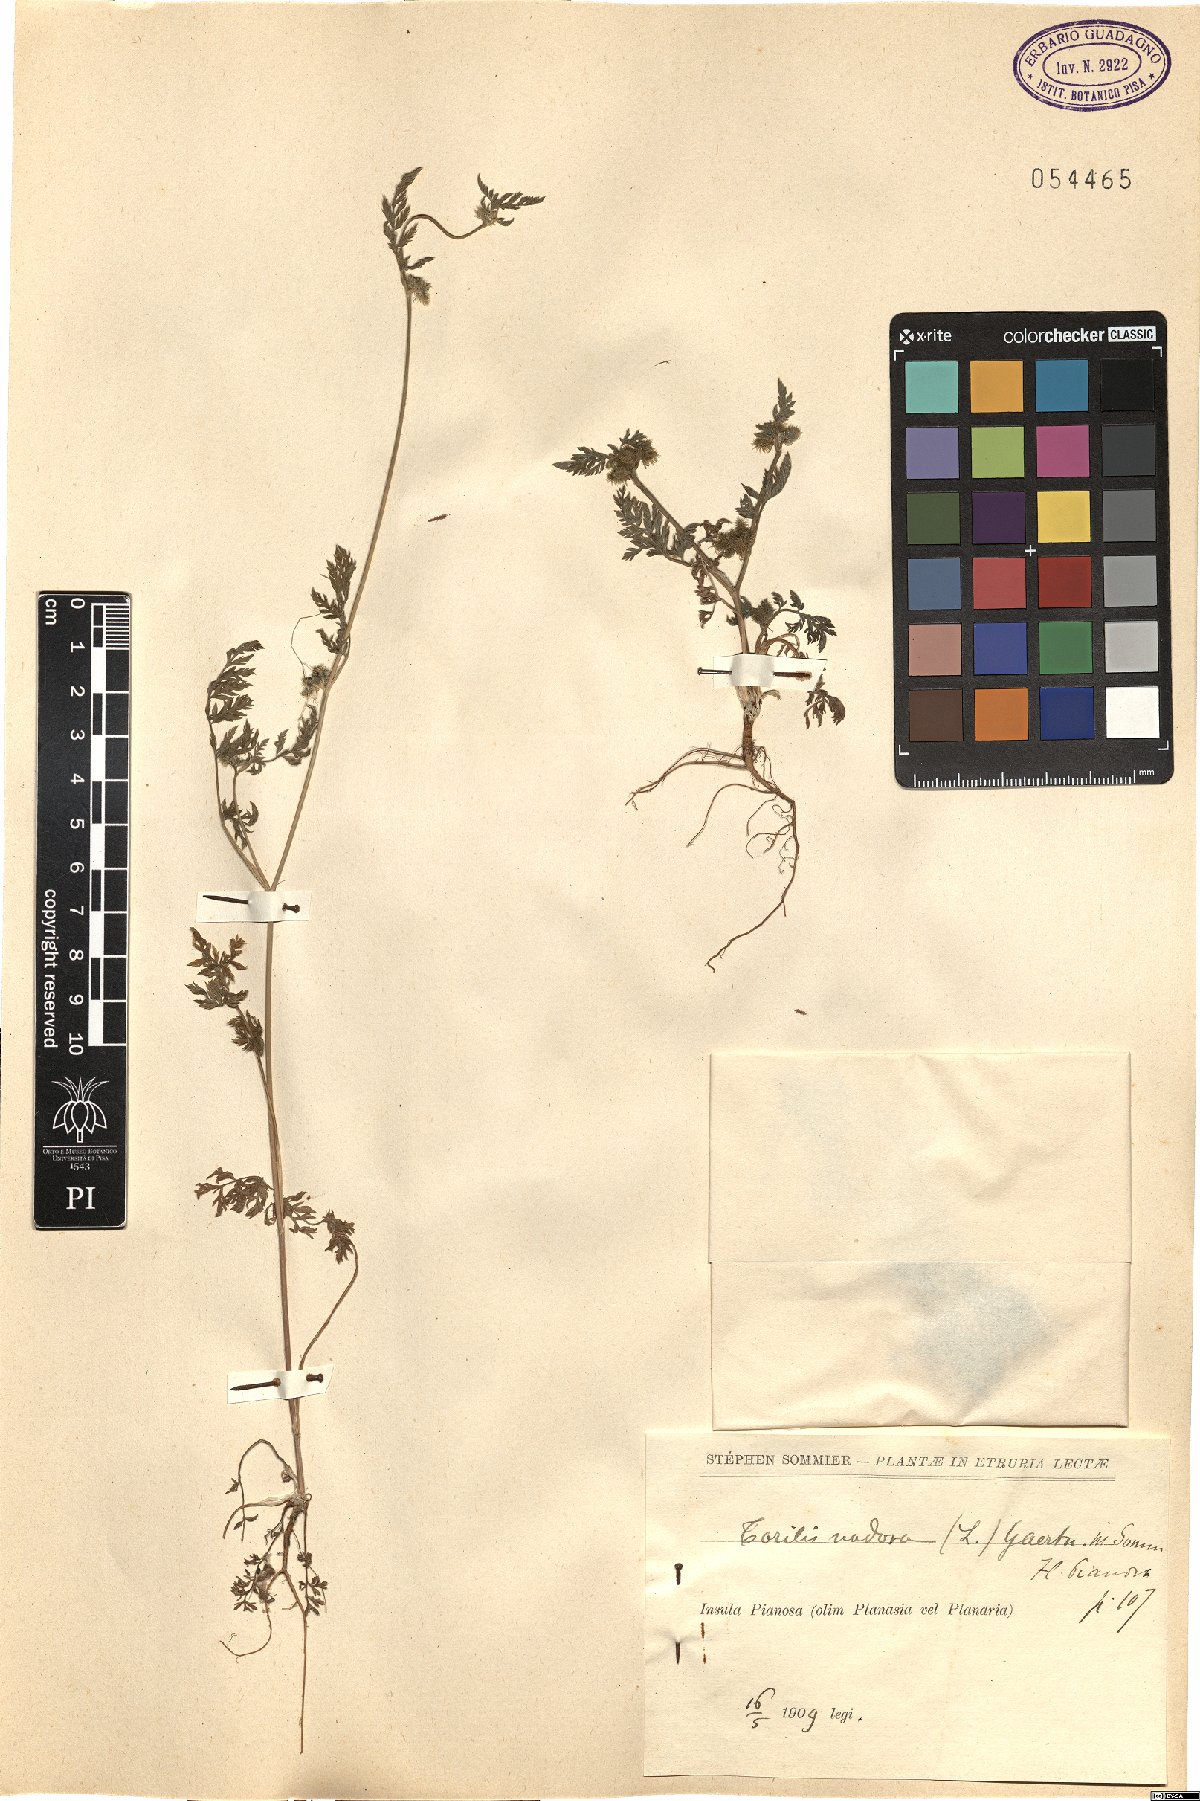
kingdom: Plantae
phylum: Tracheophyta
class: Magnoliopsida
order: Apiales
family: Apiaceae
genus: Torilis
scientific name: Torilis nodosa
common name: Knotted hedge-parsley
